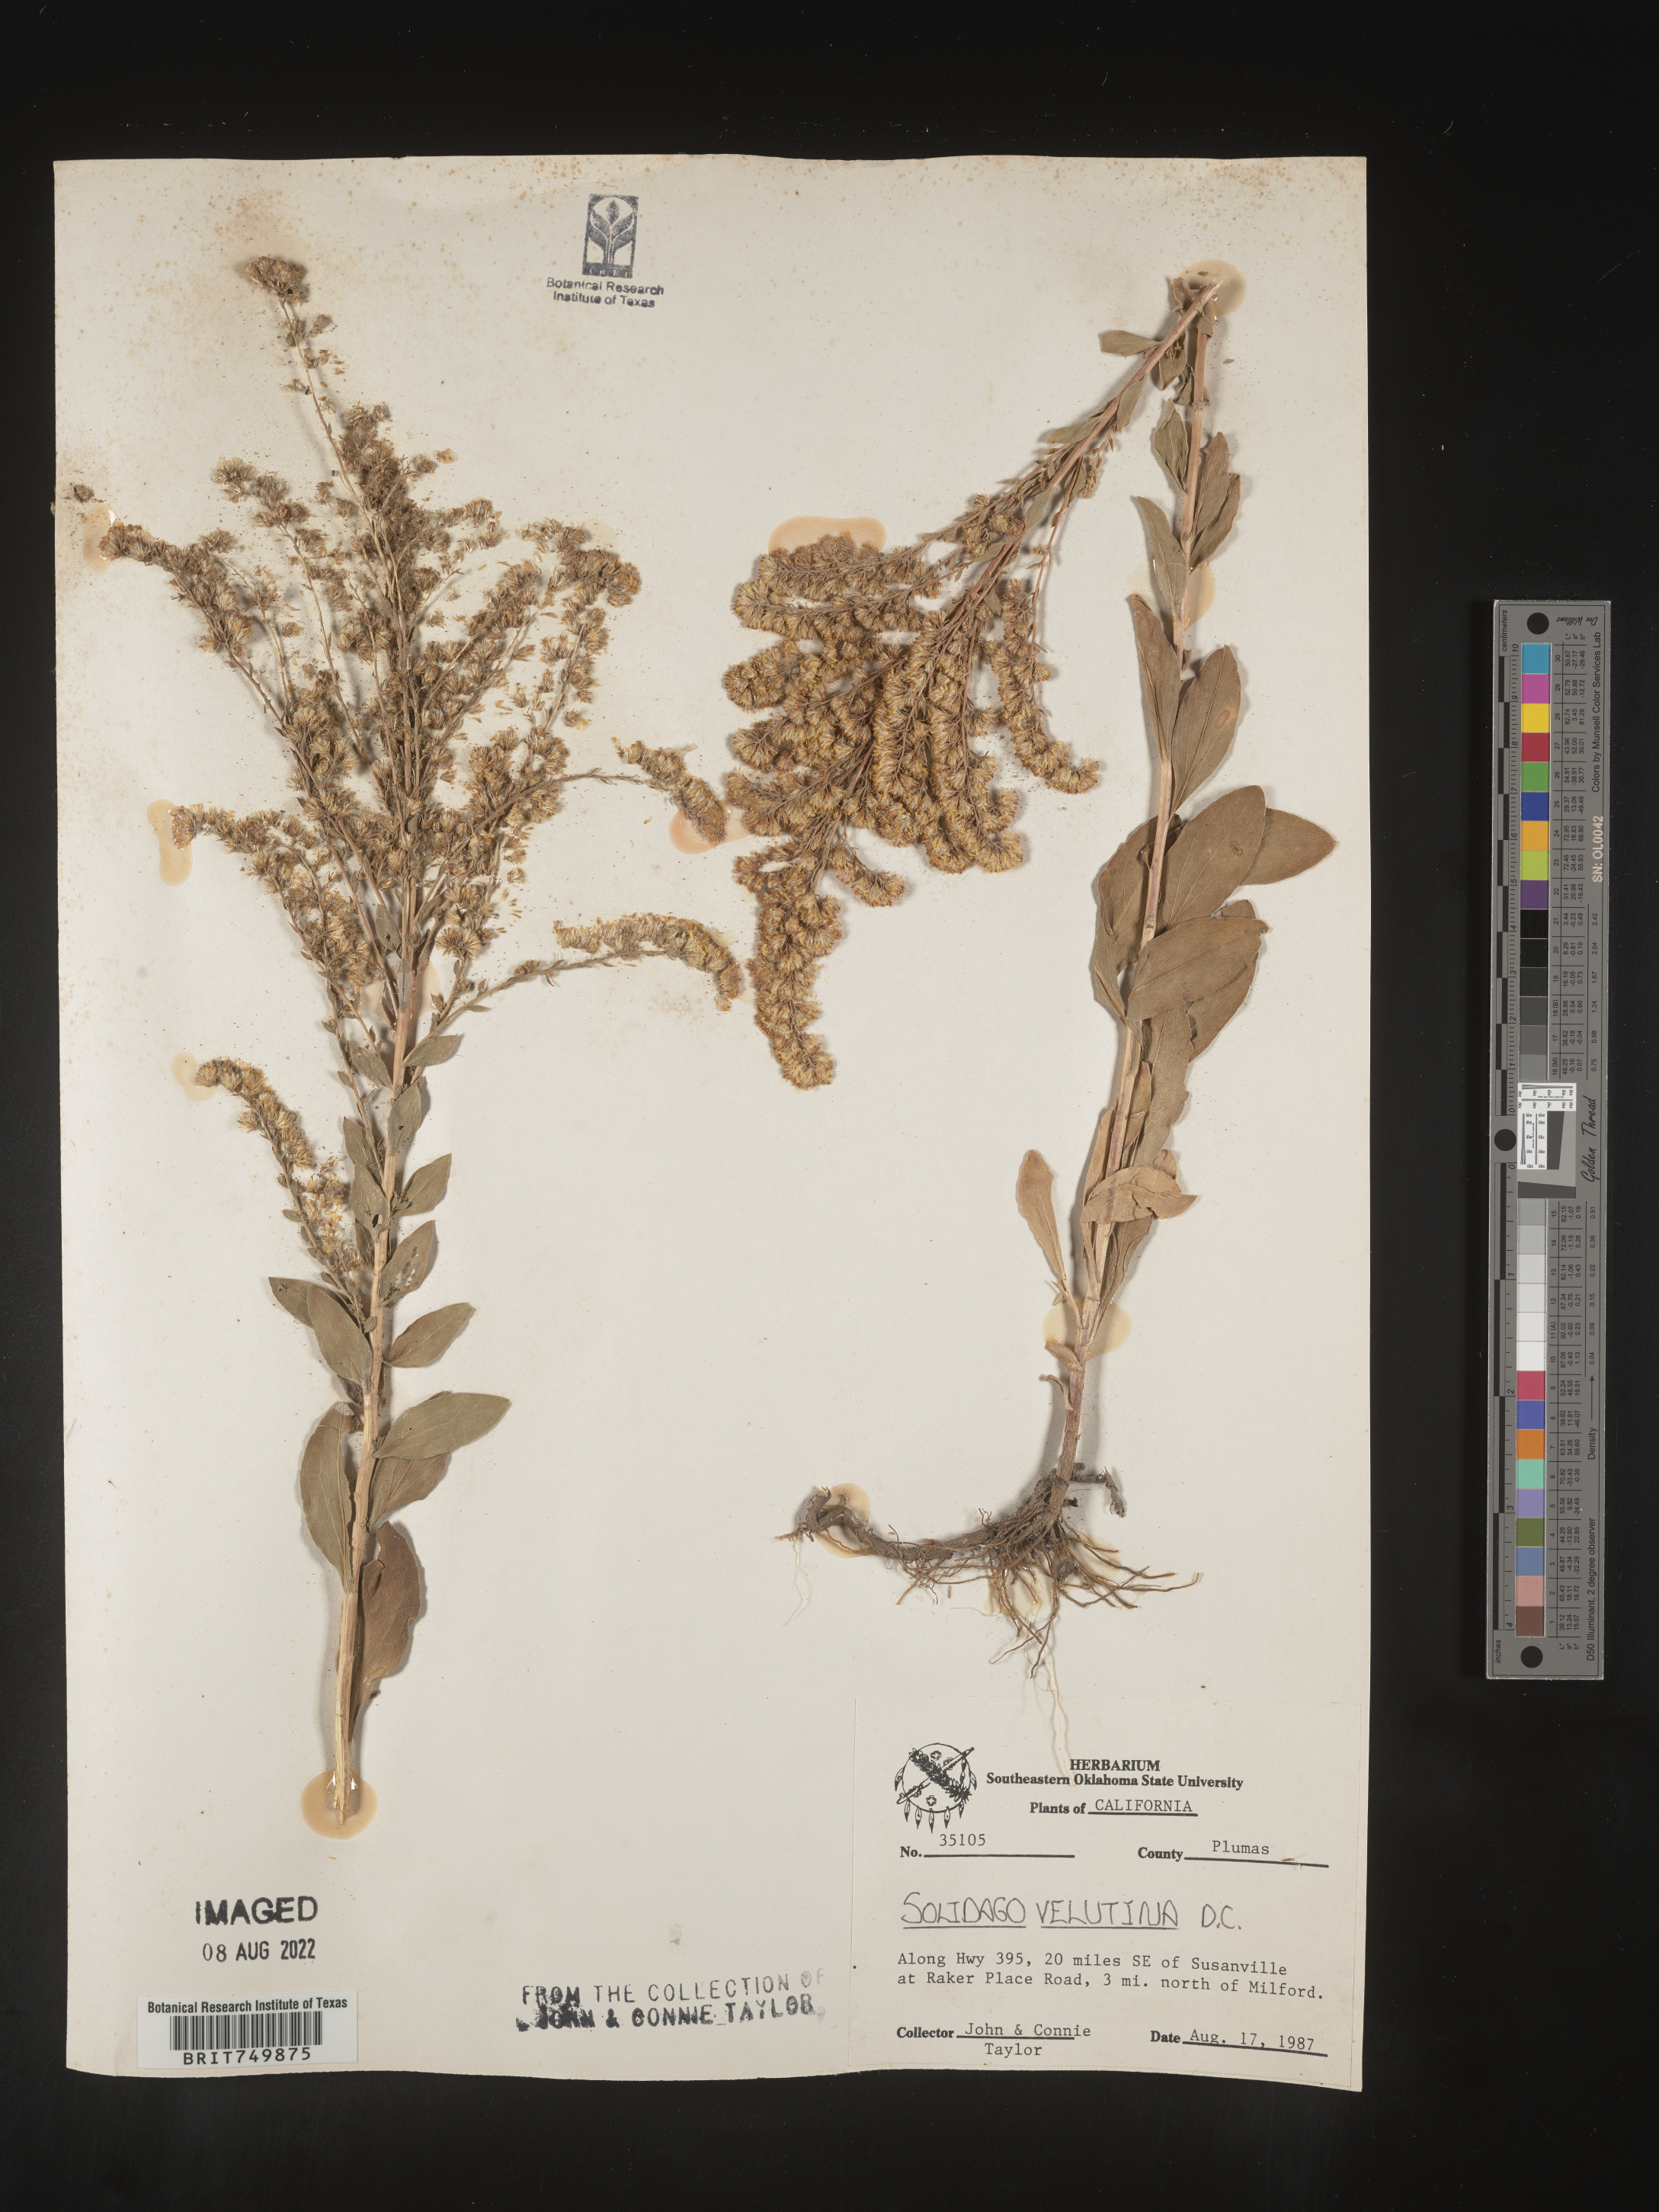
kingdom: Plantae
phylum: Tracheophyta
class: Magnoliopsida
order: Asterales
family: Asteraceae
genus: Solidago
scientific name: Solidago velutina
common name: Three-nerve goldenrod
